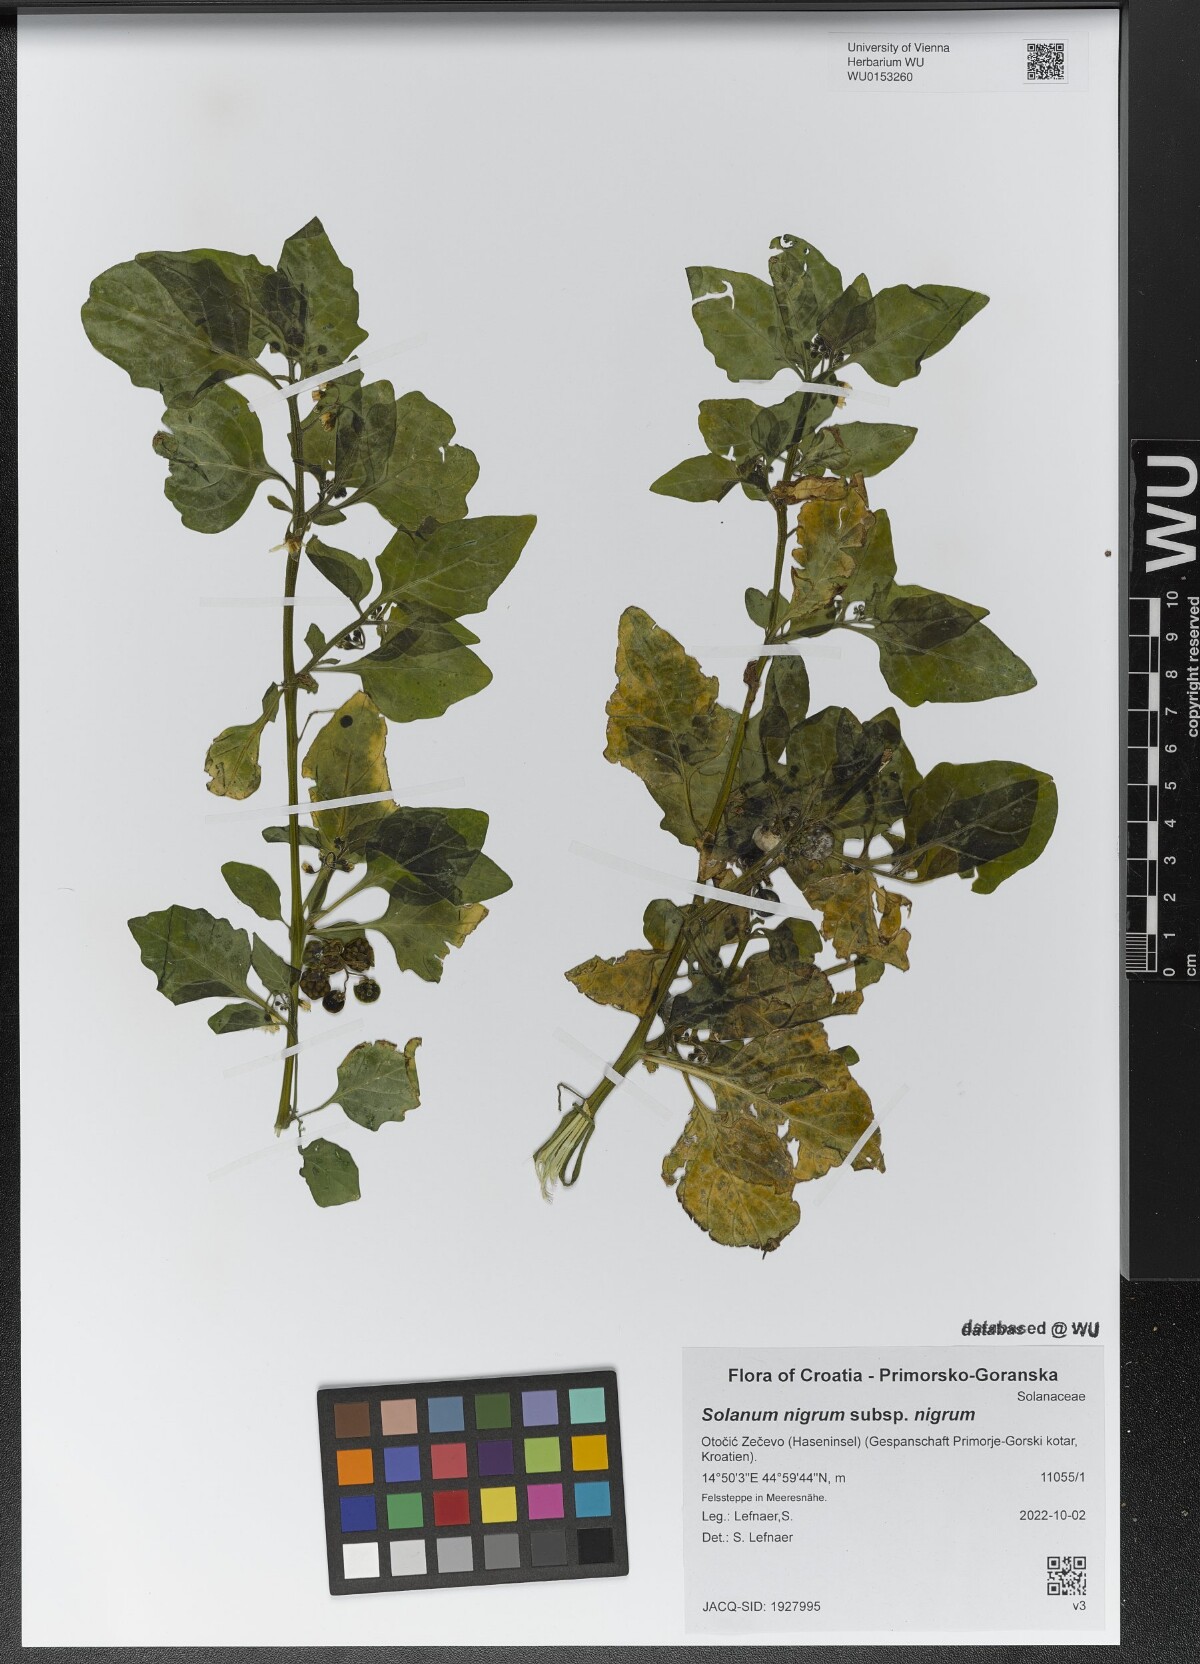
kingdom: Plantae
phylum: Tracheophyta
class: Magnoliopsida
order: Solanales
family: Solanaceae
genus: Solanum
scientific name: Solanum nigrum
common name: Black nightshade
